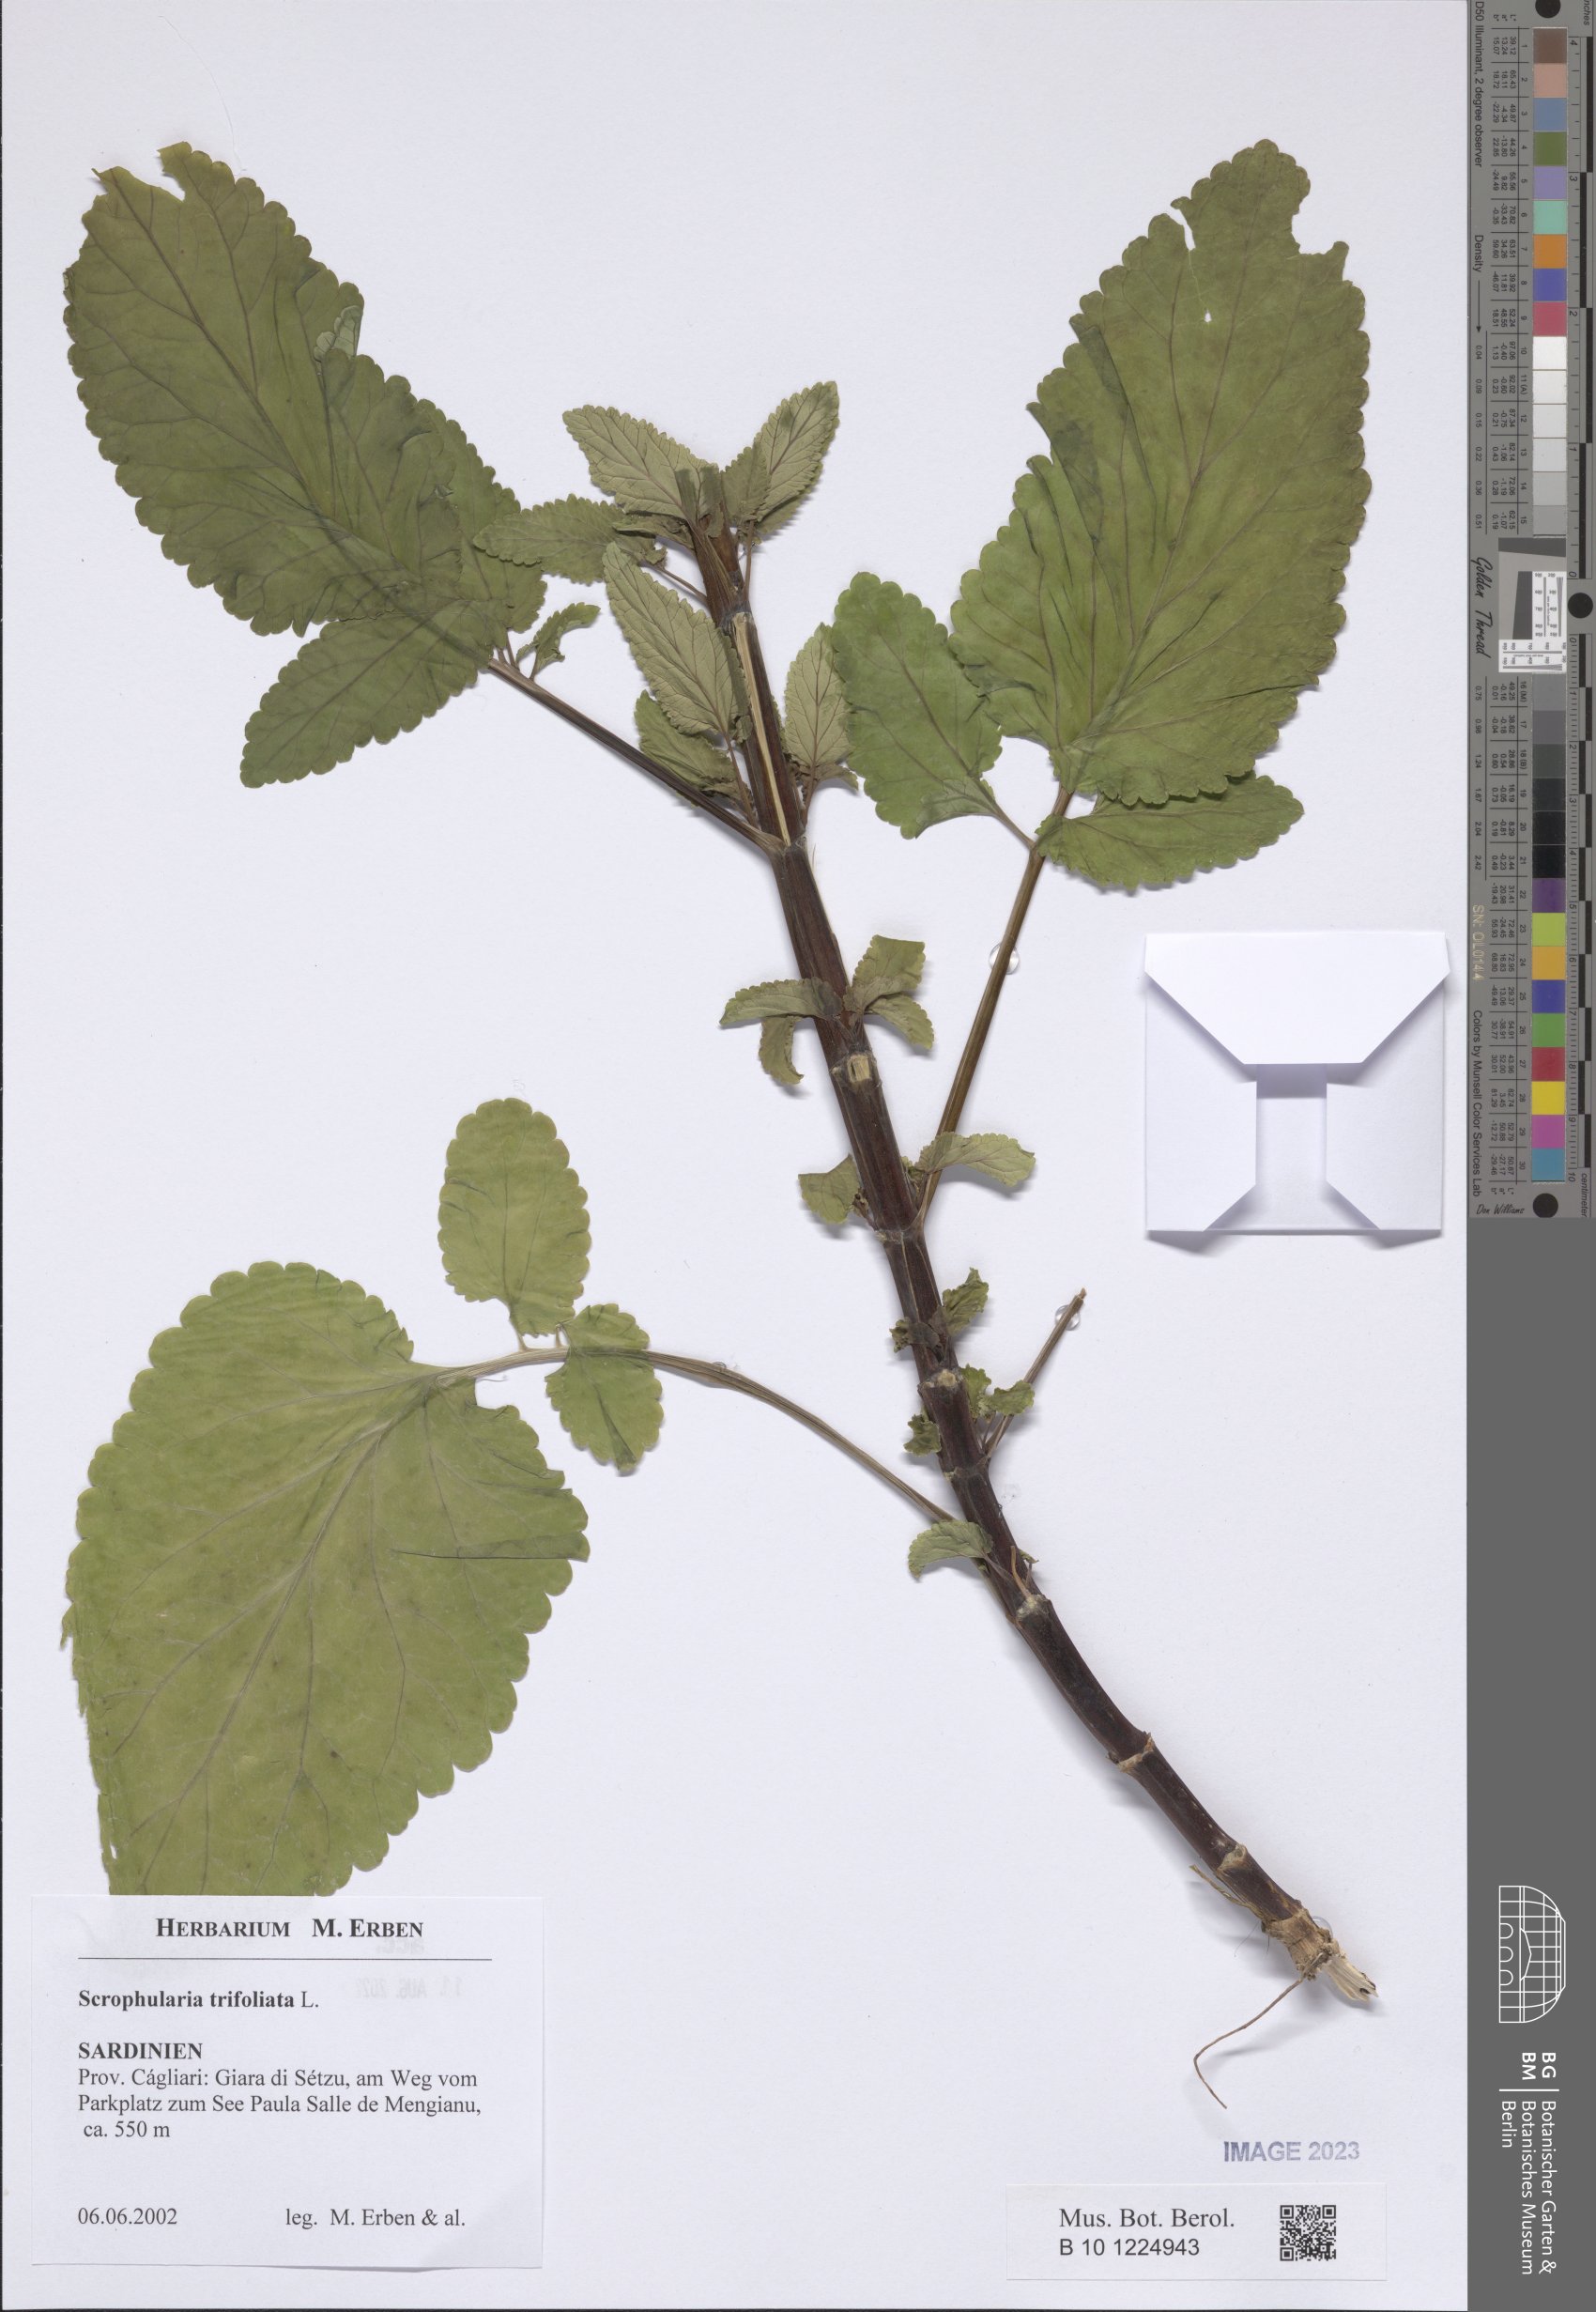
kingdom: Plantae
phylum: Tracheophyta
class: Magnoliopsida
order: Lamiales
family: Scrophulariaceae
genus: Scrophularia
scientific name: Scrophularia trifoliata
